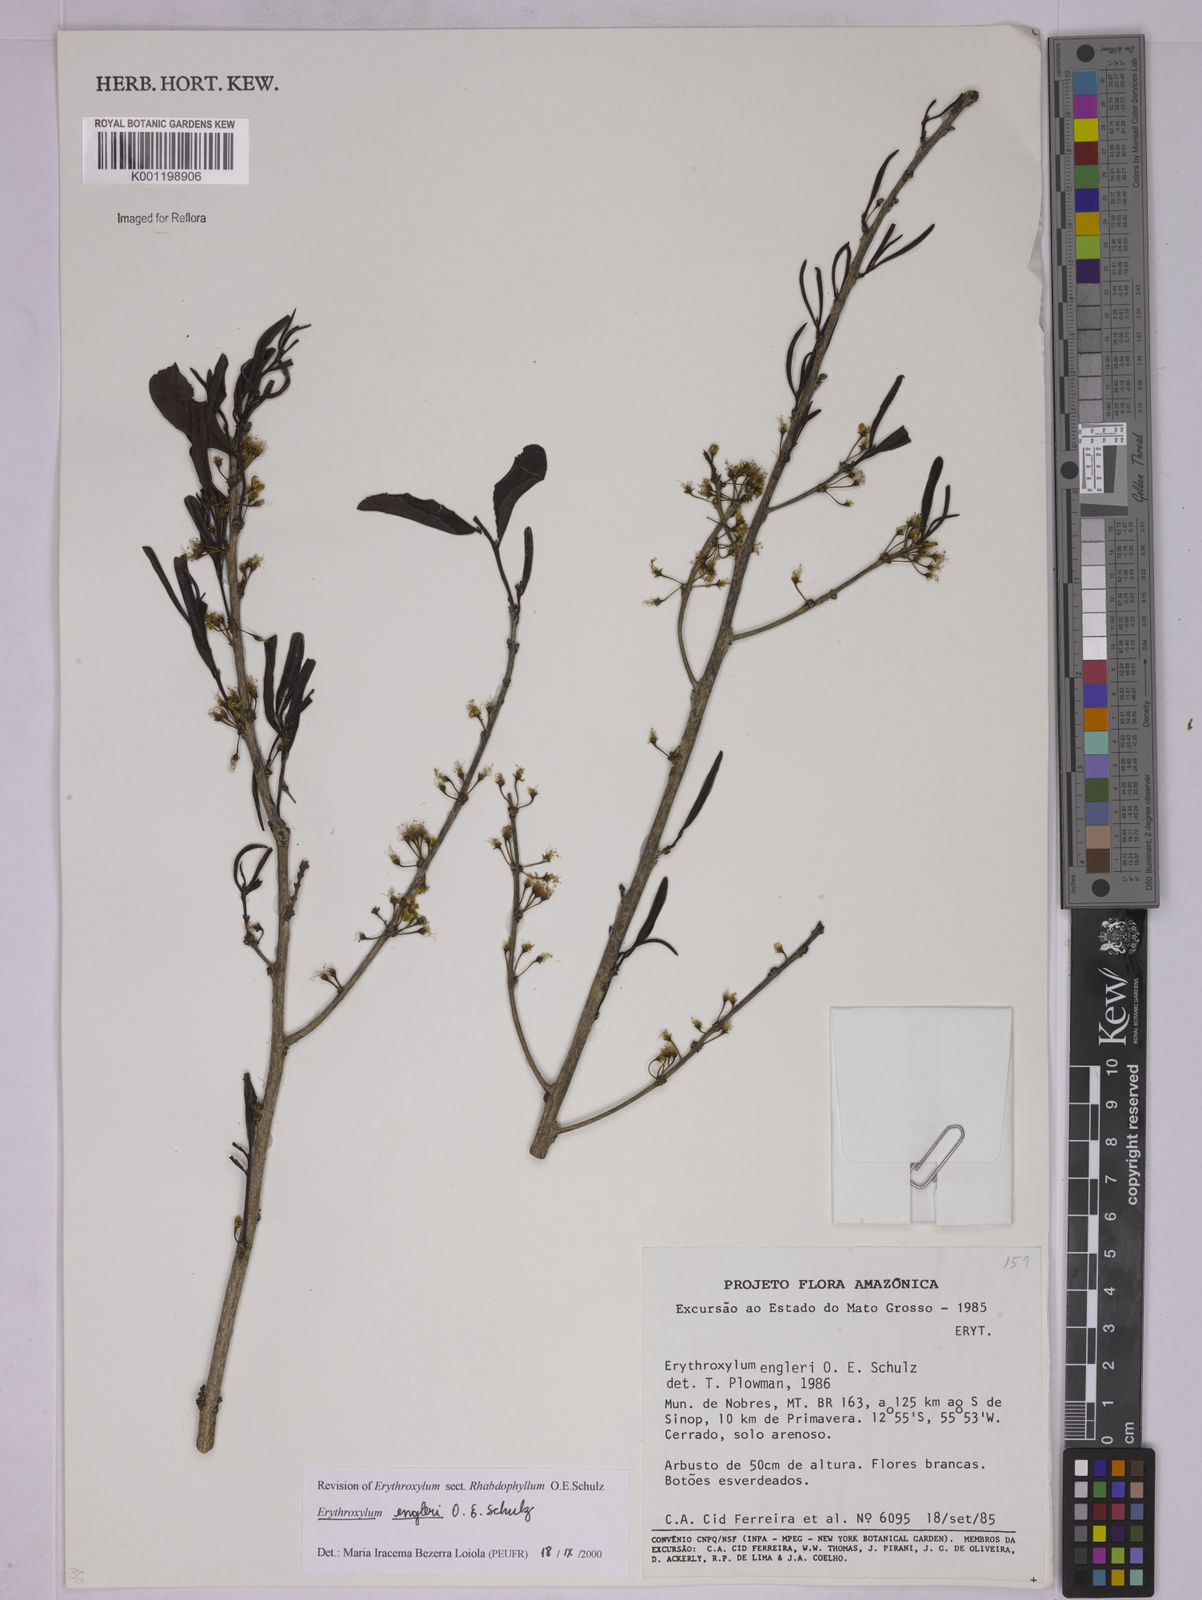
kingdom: Plantae
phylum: Tracheophyta
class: Magnoliopsida
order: Malpighiales
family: Erythroxylaceae
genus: Erythroxylum
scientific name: Erythroxylum engleri
